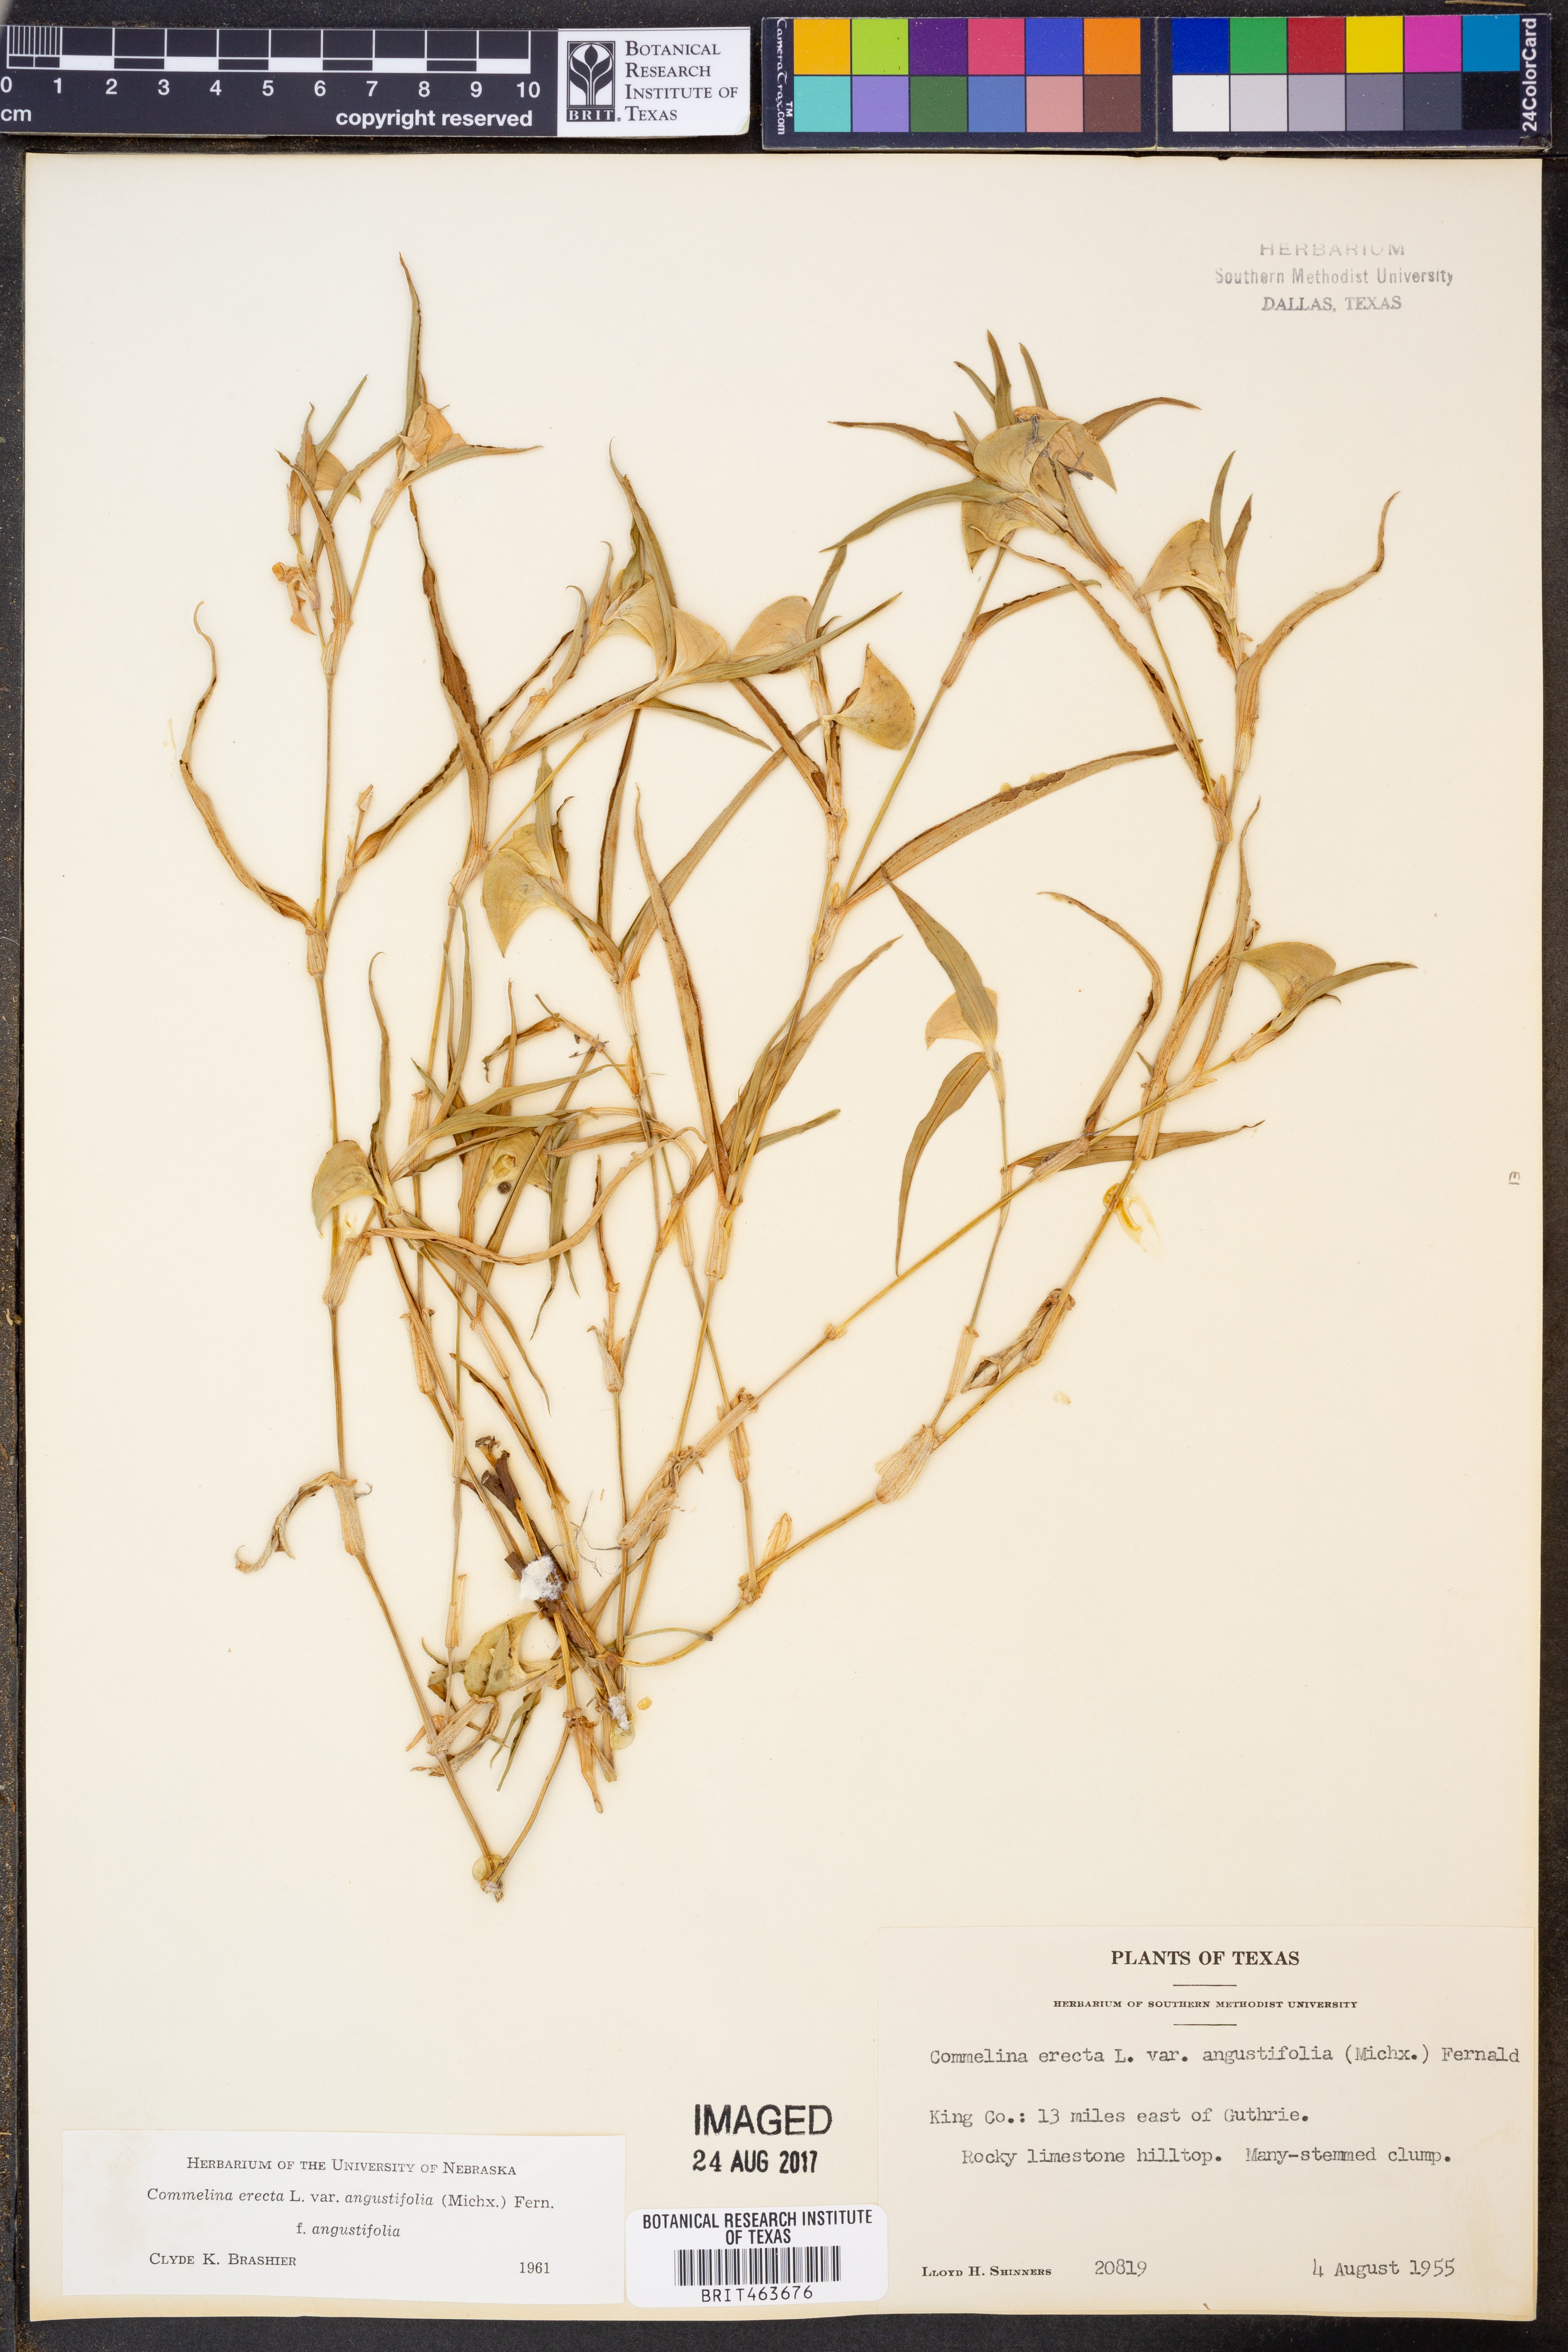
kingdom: Plantae
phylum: Tracheophyta
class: Liliopsida
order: Commelinales
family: Commelinaceae
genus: Commelina
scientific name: Commelina erecta
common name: Blousel blommetjie
